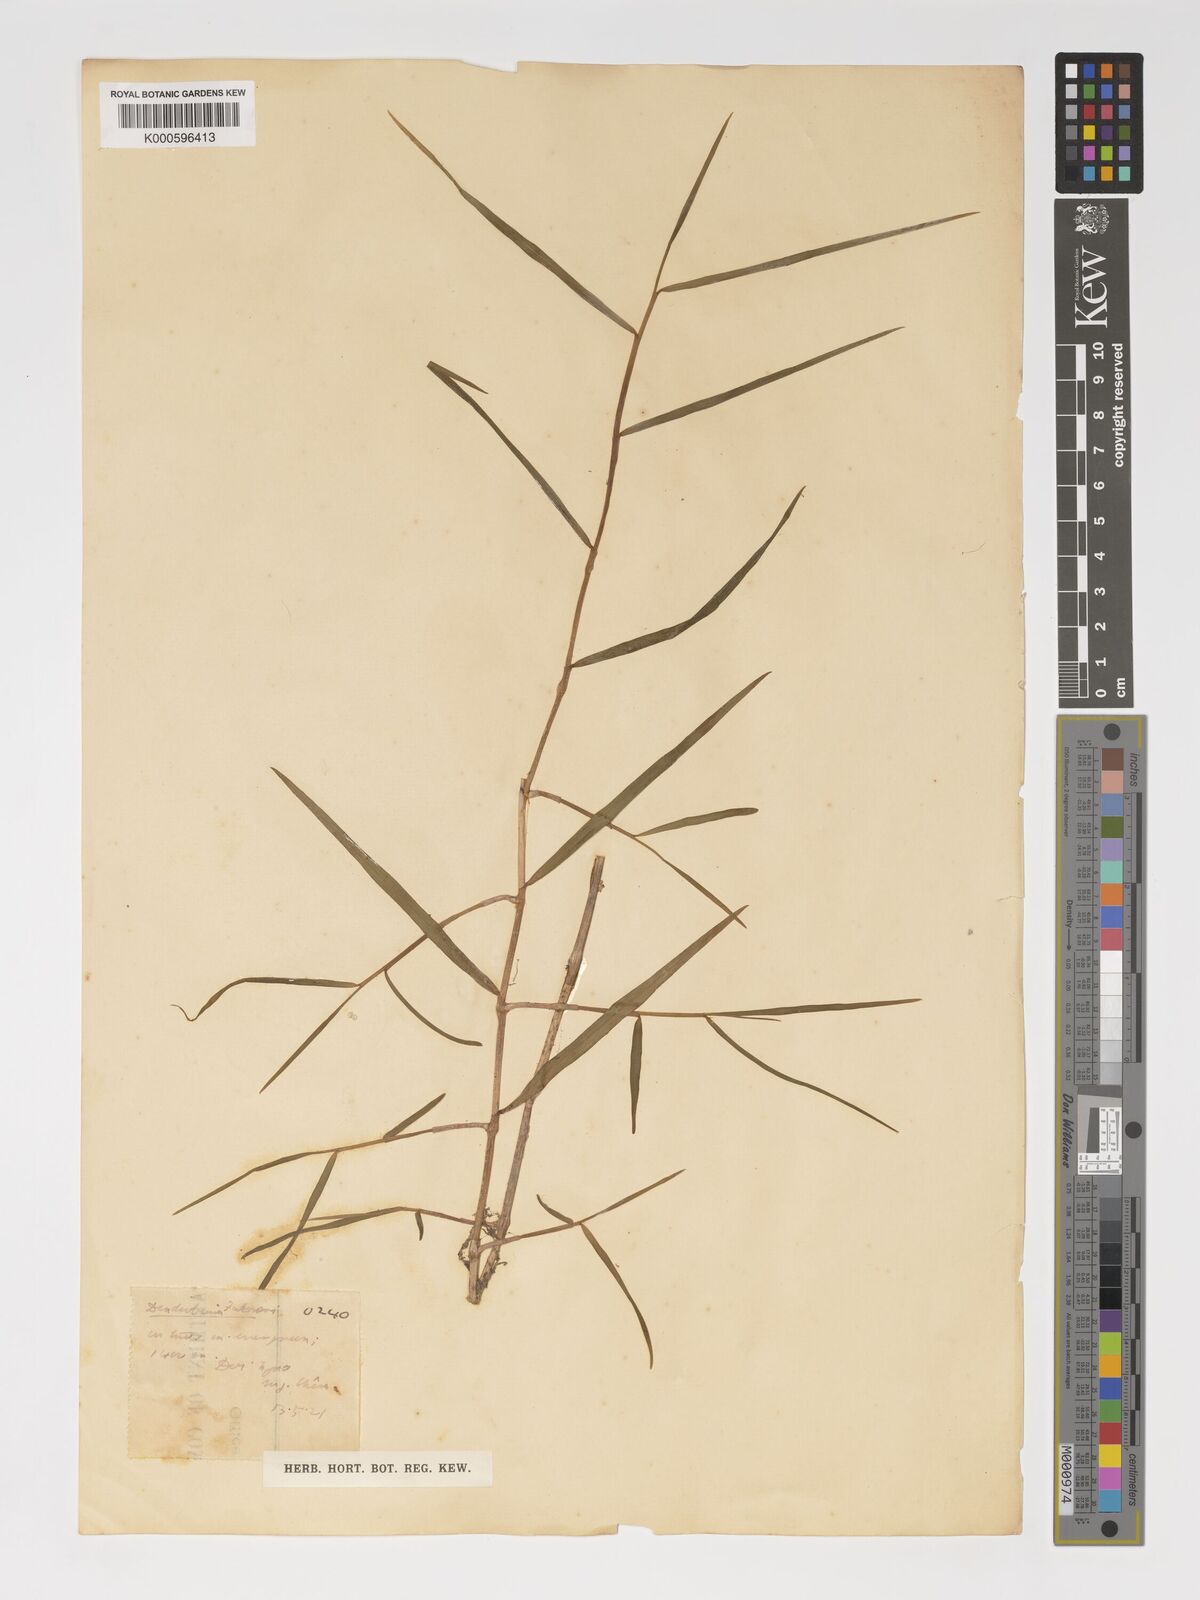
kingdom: Plantae
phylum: Tracheophyta
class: Liliopsida
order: Asparagales
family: Orchidaceae
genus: Dendrobium
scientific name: Dendrobium falconeri
